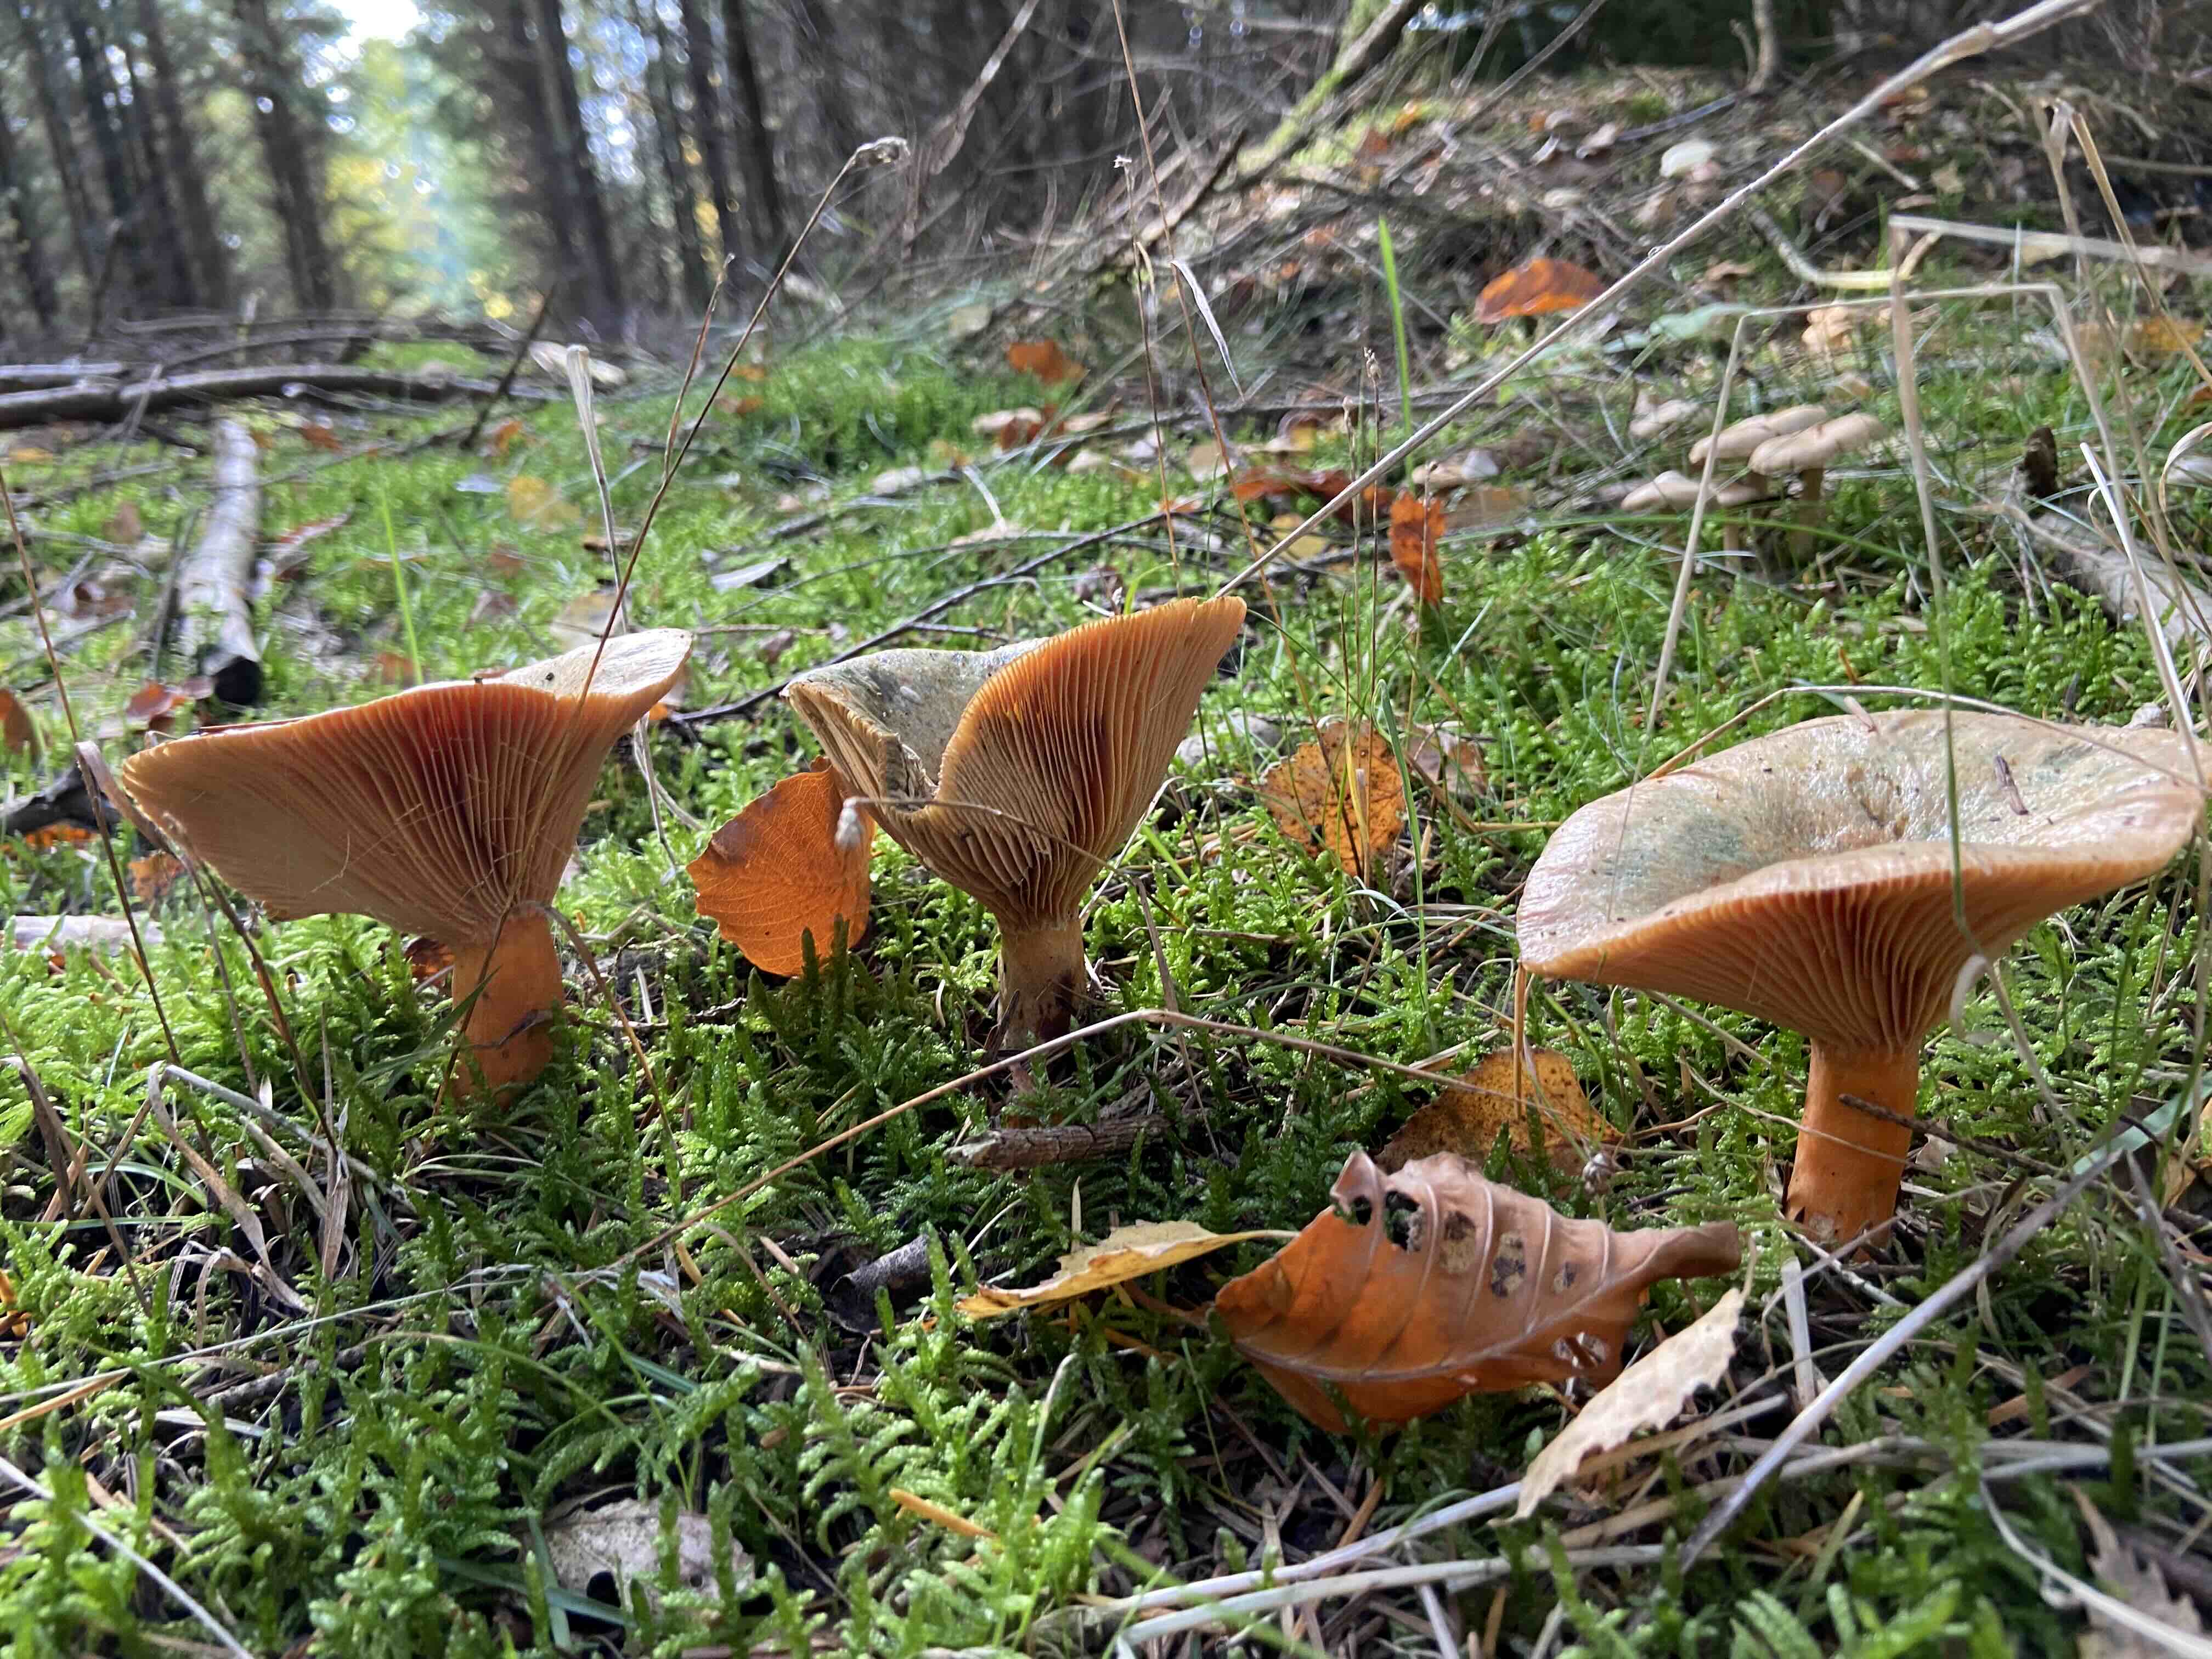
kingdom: Fungi
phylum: Basidiomycota
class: Agaricomycetes
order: Russulales
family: Russulaceae
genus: Lactarius
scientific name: Lactarius deterrimus
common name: gran-mælkehat
